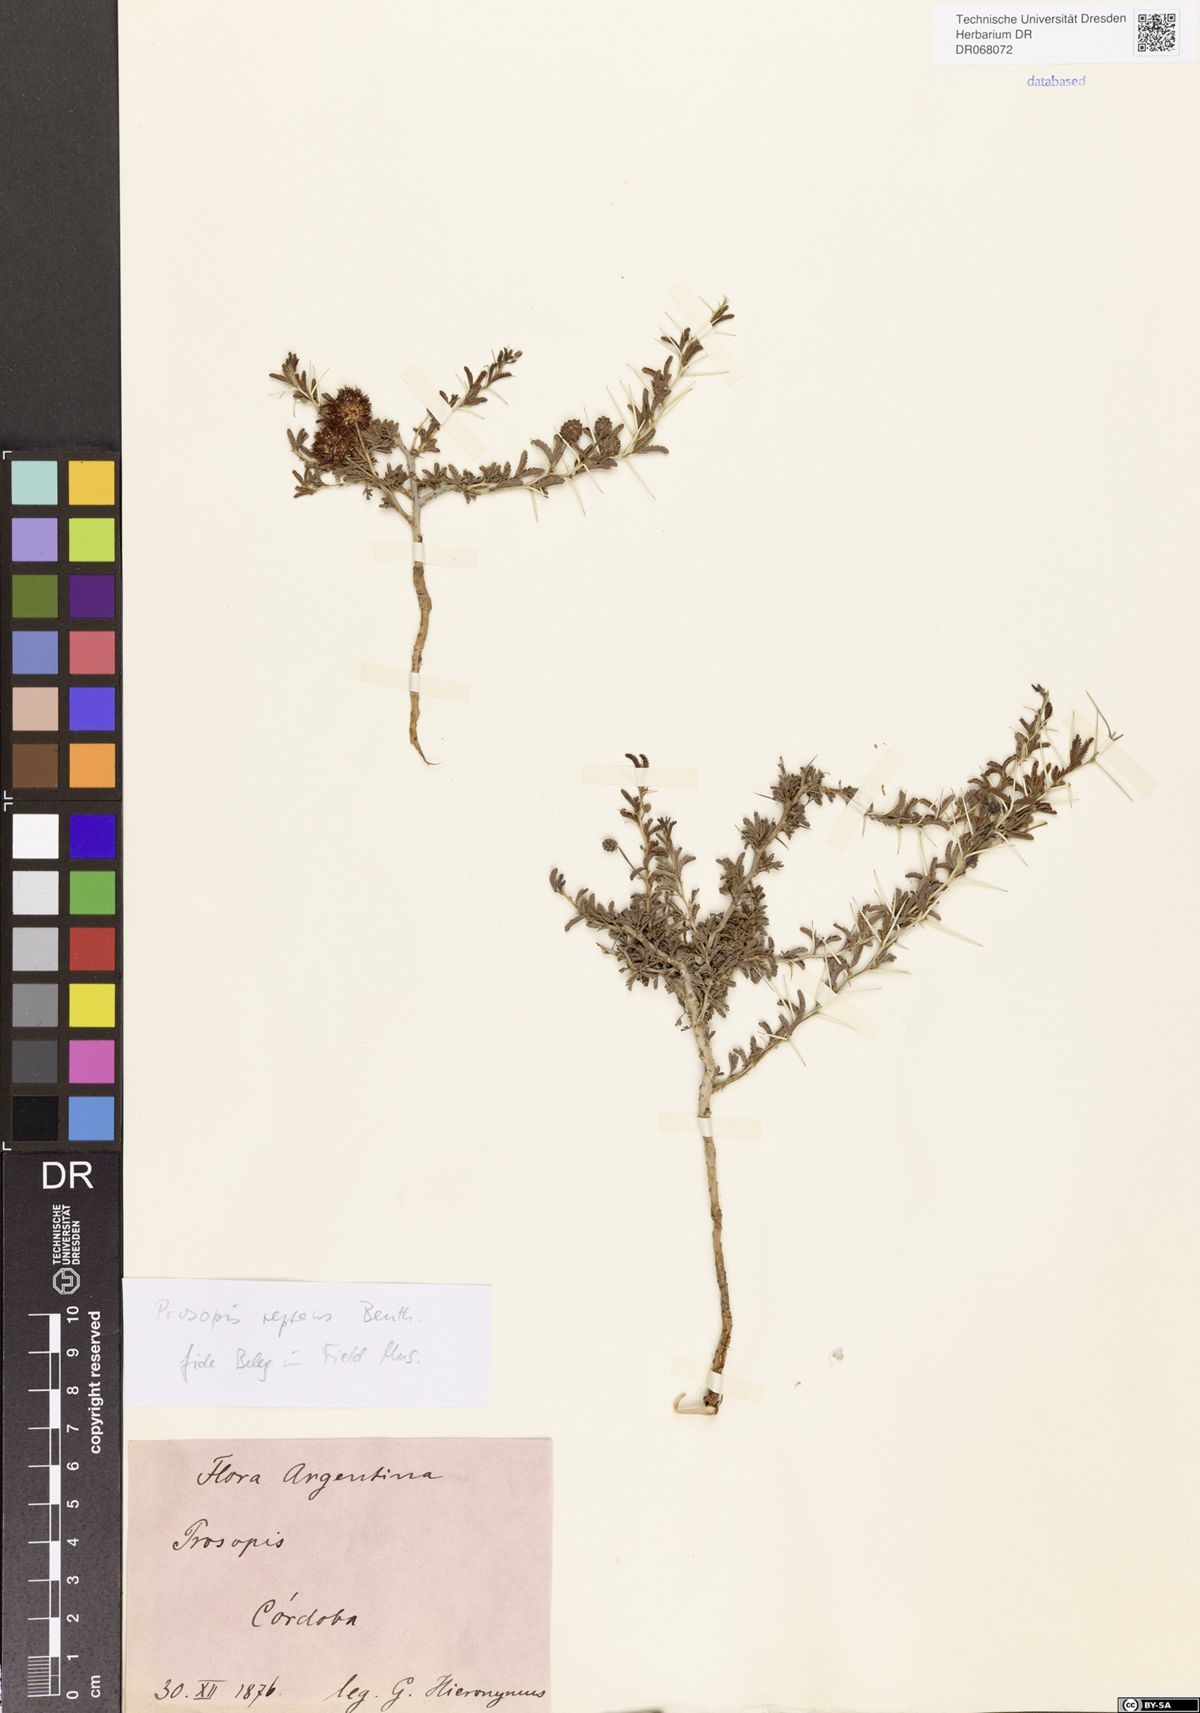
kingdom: Plantae
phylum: Tracheophyta
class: Magnoliopsida
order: Fabales
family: Fabaceae
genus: Prosopis
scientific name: Prosopis reptans
